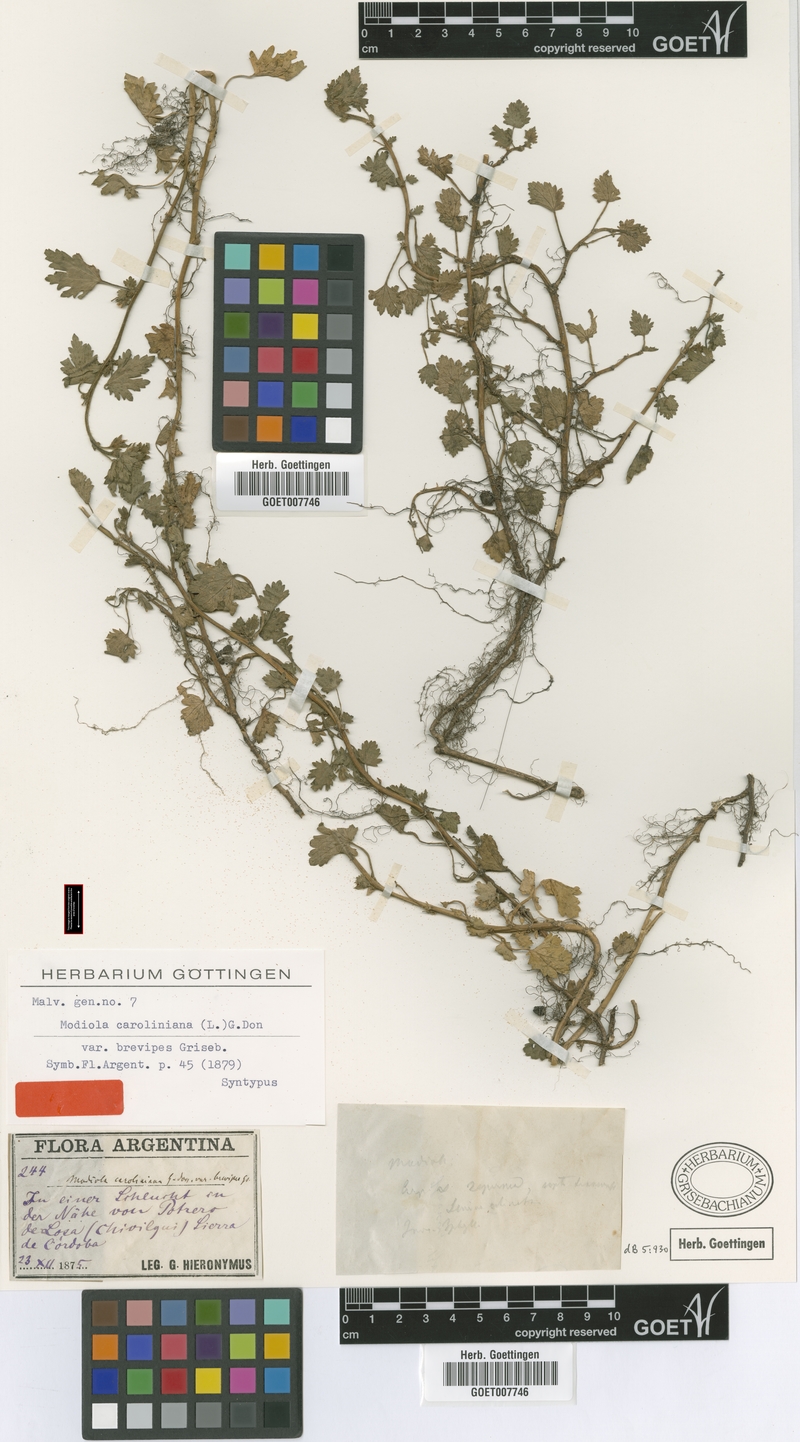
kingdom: Plantae
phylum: Tracheophyta
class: Magnoliopsida
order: Malvales
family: Malvaceae
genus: Modiola
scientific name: Modiola caroliniana
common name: Carolina bristlemallow
